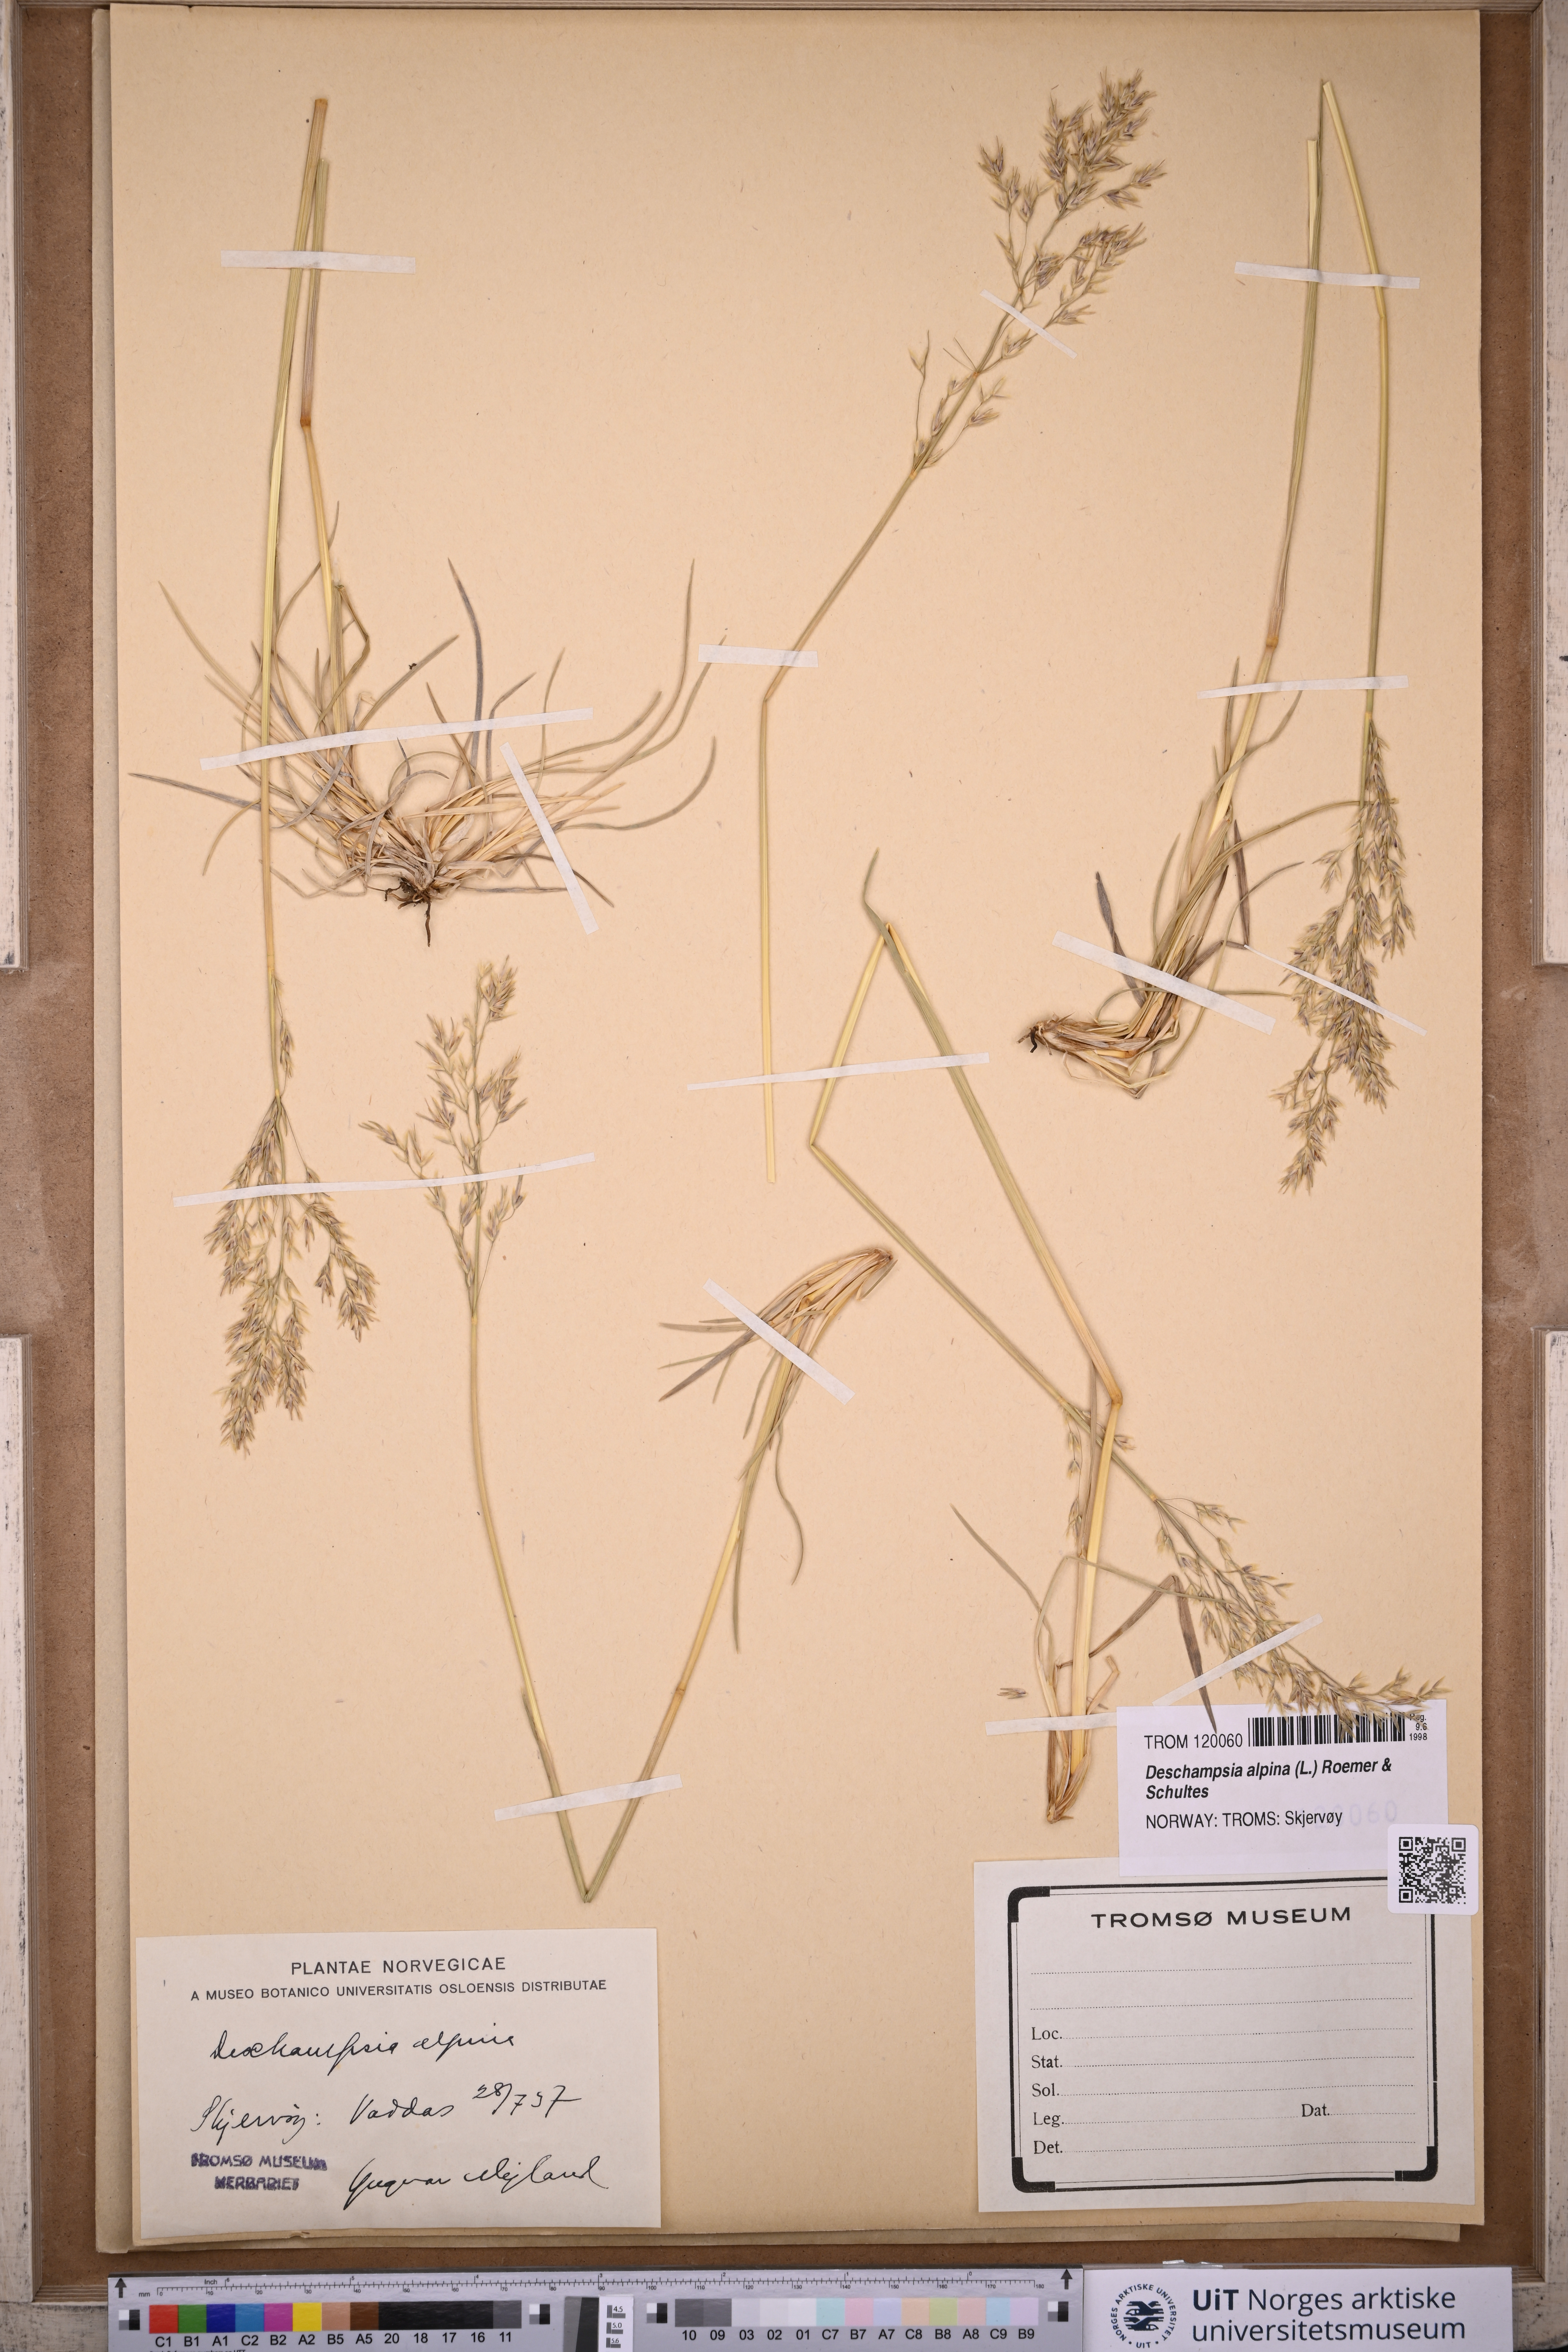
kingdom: Plantae
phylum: Tracheophyta
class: Liliopsida
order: Poales
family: Poaceae
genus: Deschampsia
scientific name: Deschampsia cespitosa
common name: Tufted hair-grass
